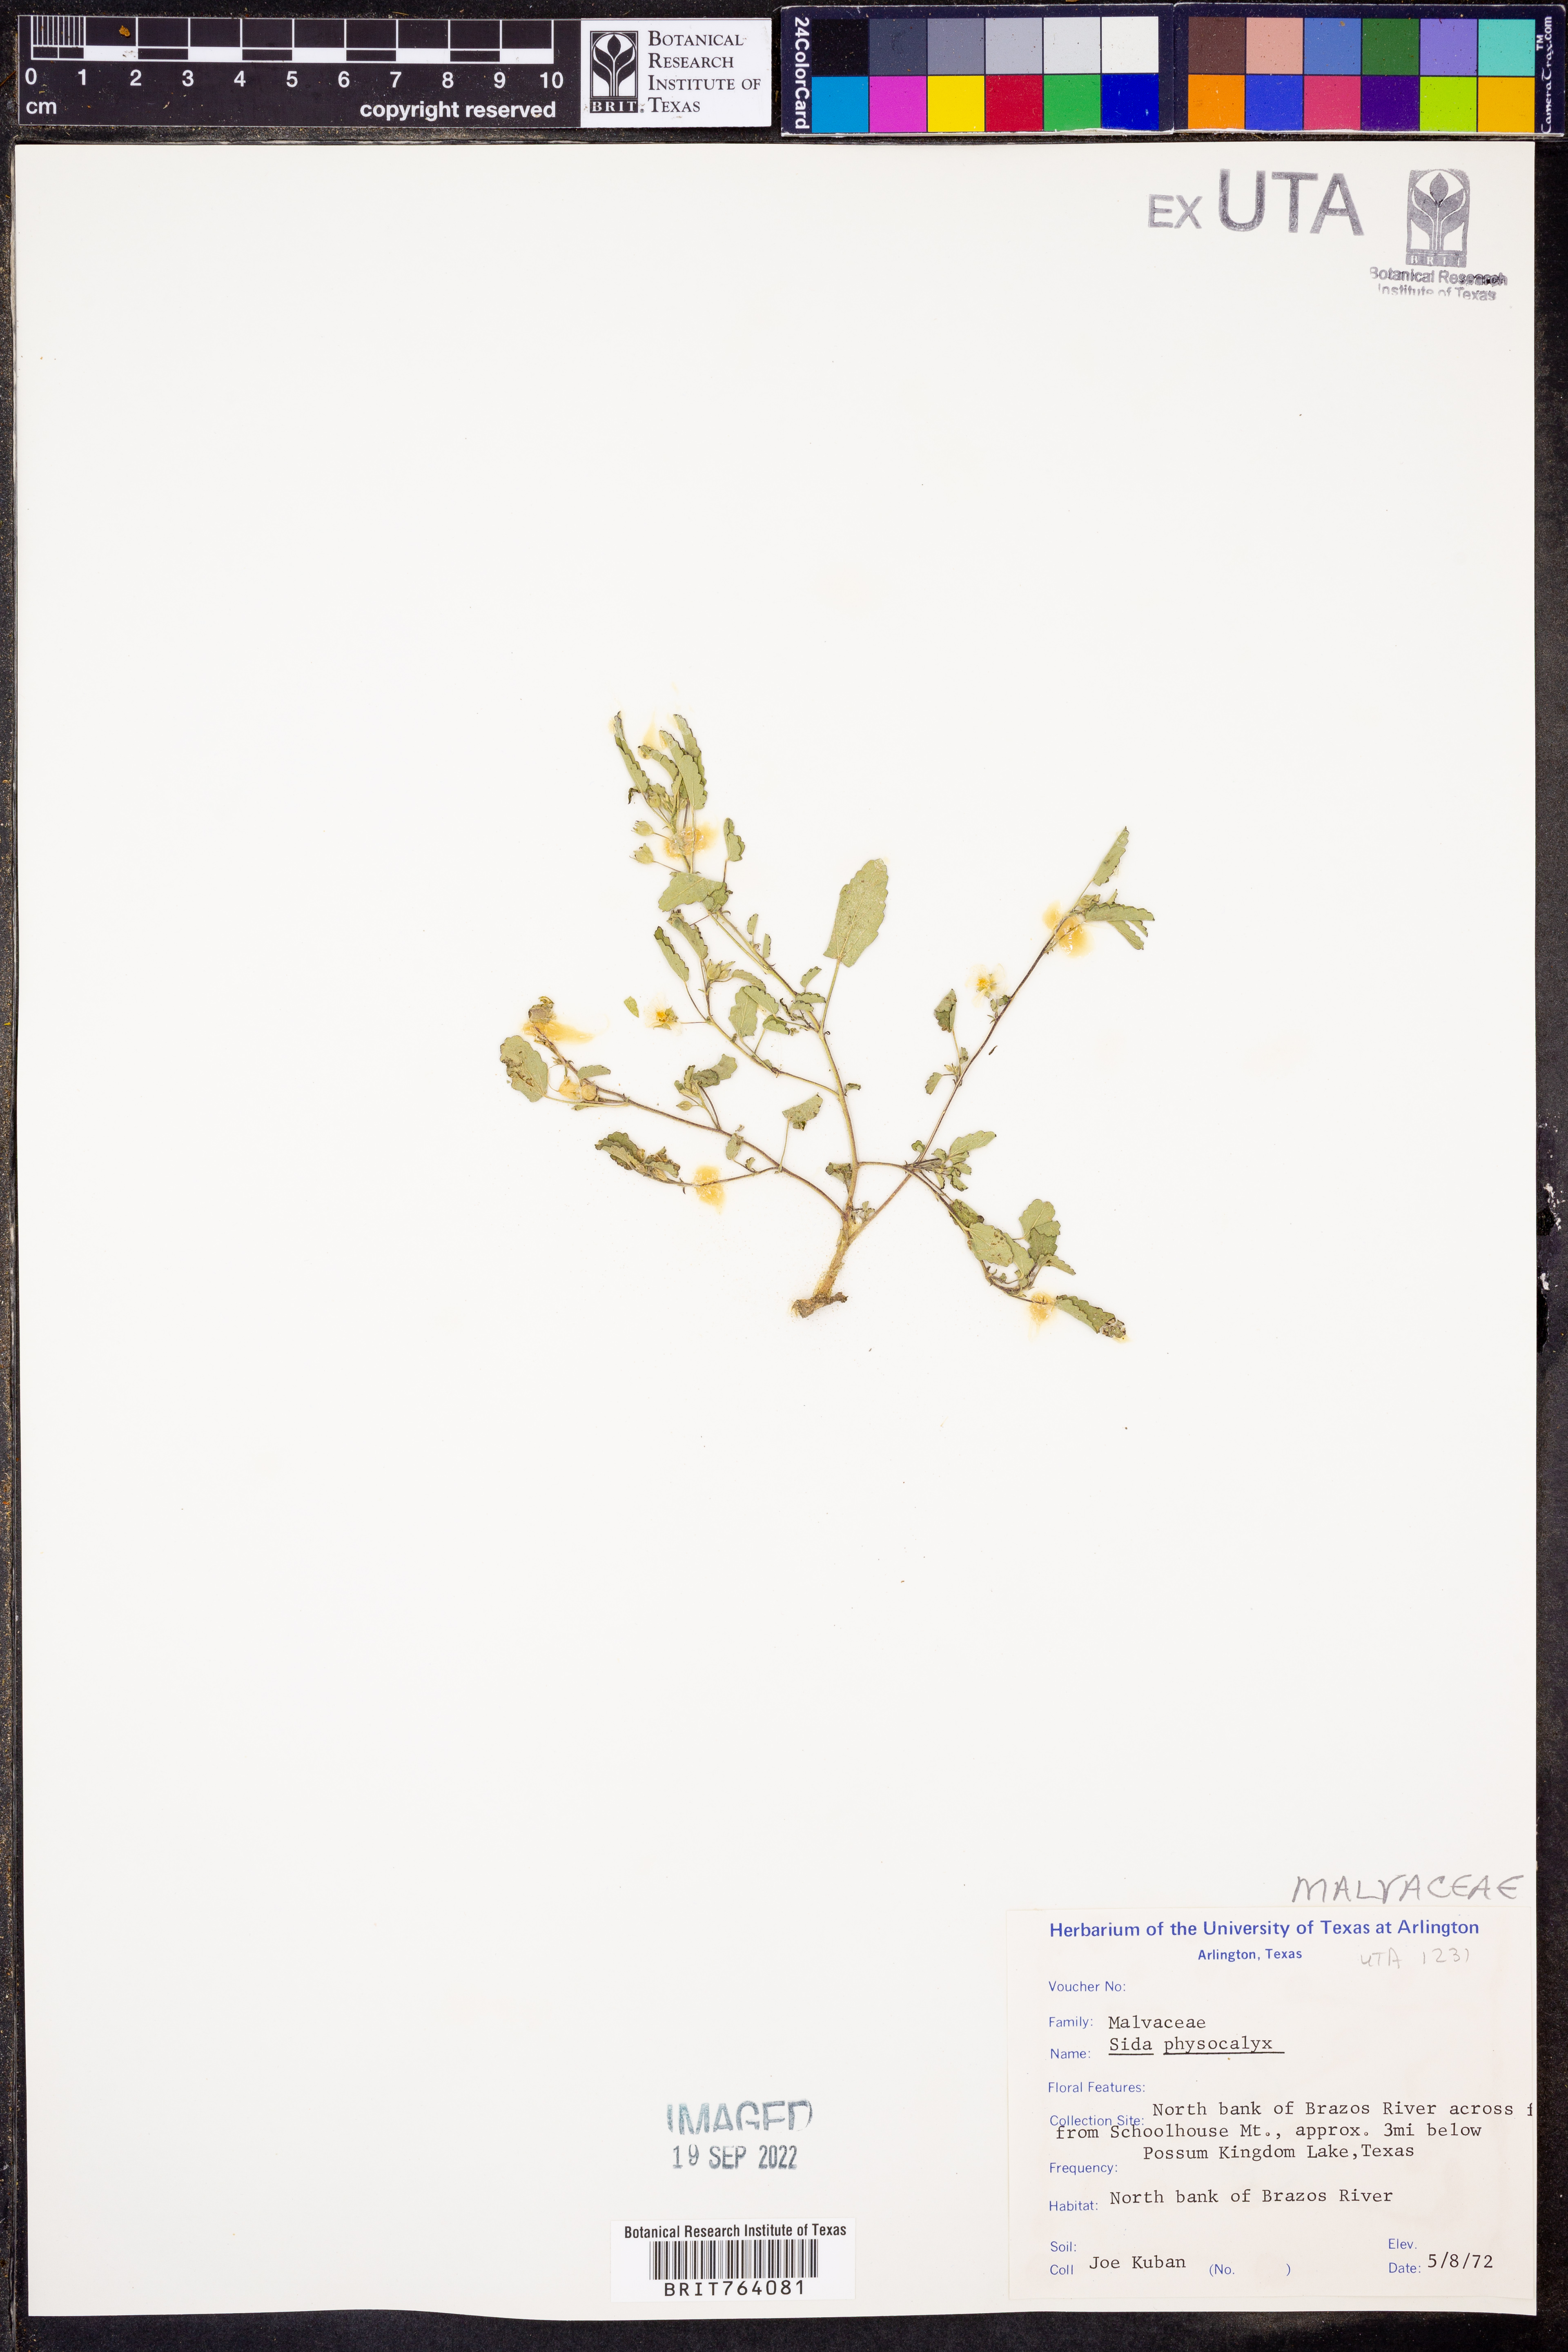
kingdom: Plantae
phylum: Tracheophyta
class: Magnoliopsida
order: Malvales
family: Malvaceae
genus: Rhynchosida
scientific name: Rhynchosida physocalyx
